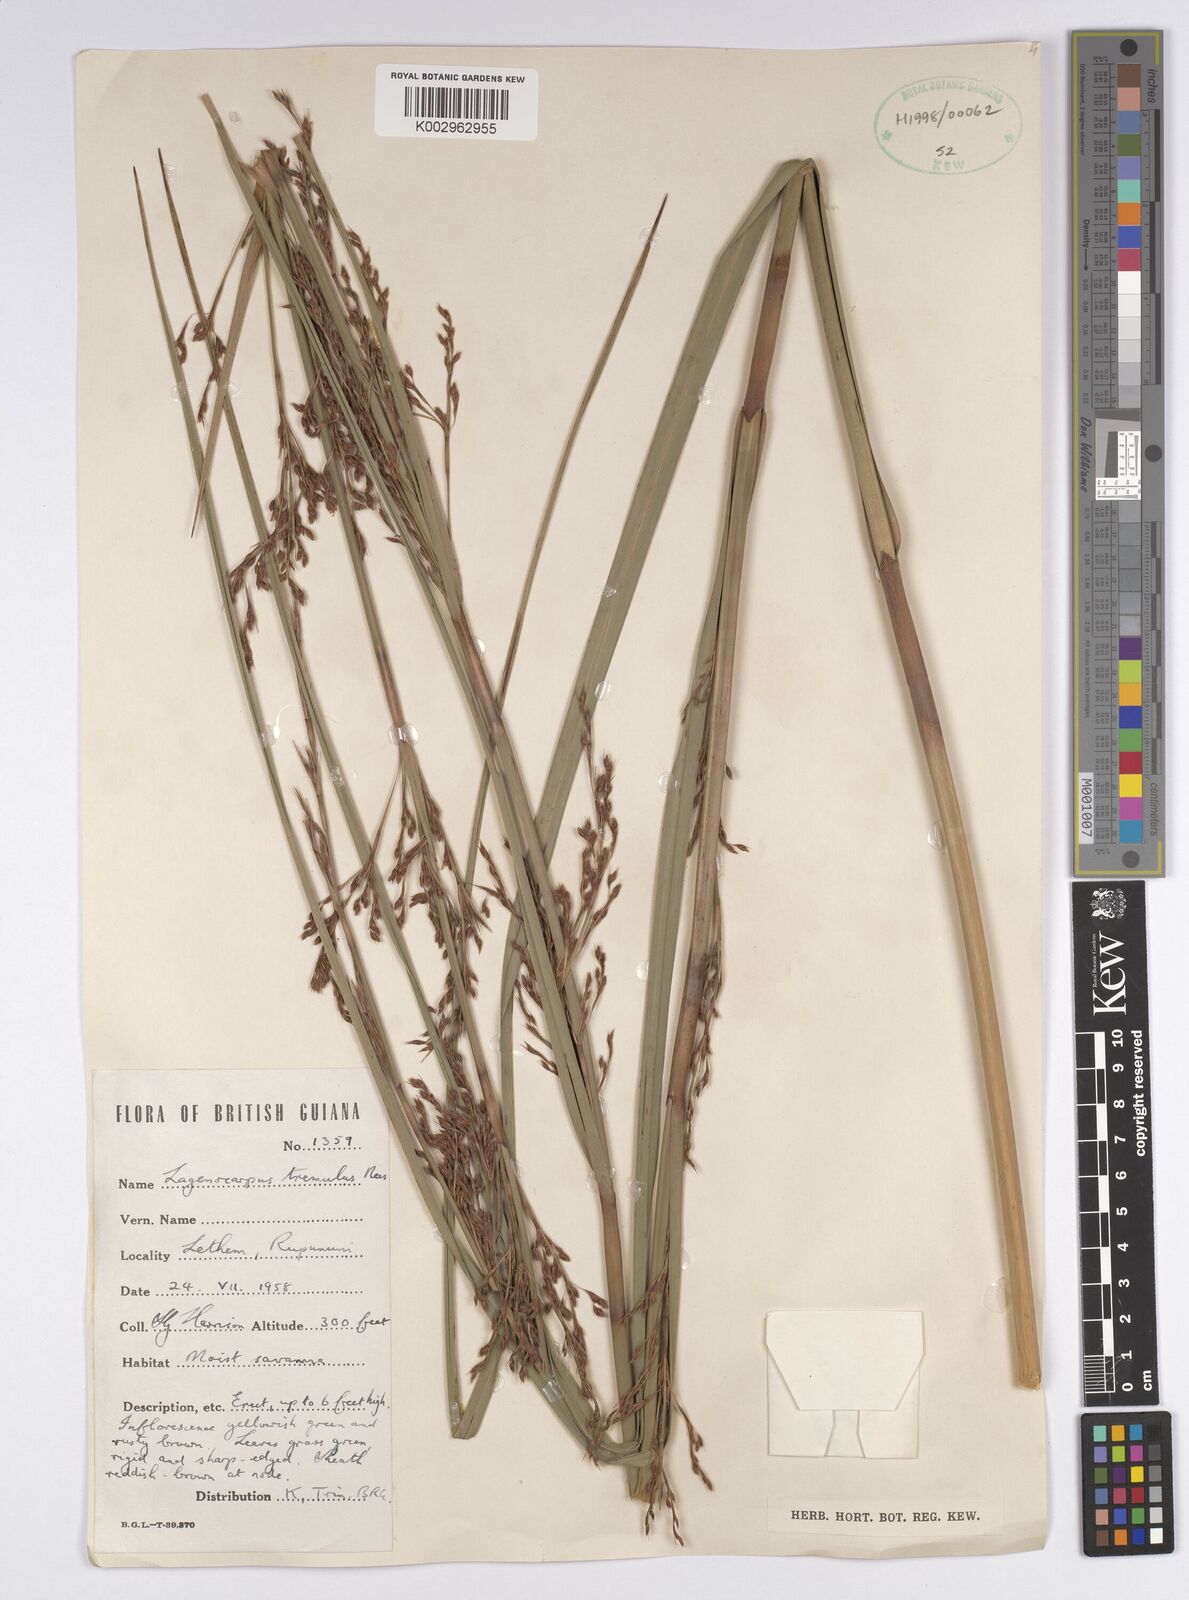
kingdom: Plantae
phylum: Tracheophyta
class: Liliopsida
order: Poales
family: Cyperaceae
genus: Lagenocarpus
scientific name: Lagenocarpus rigidus
